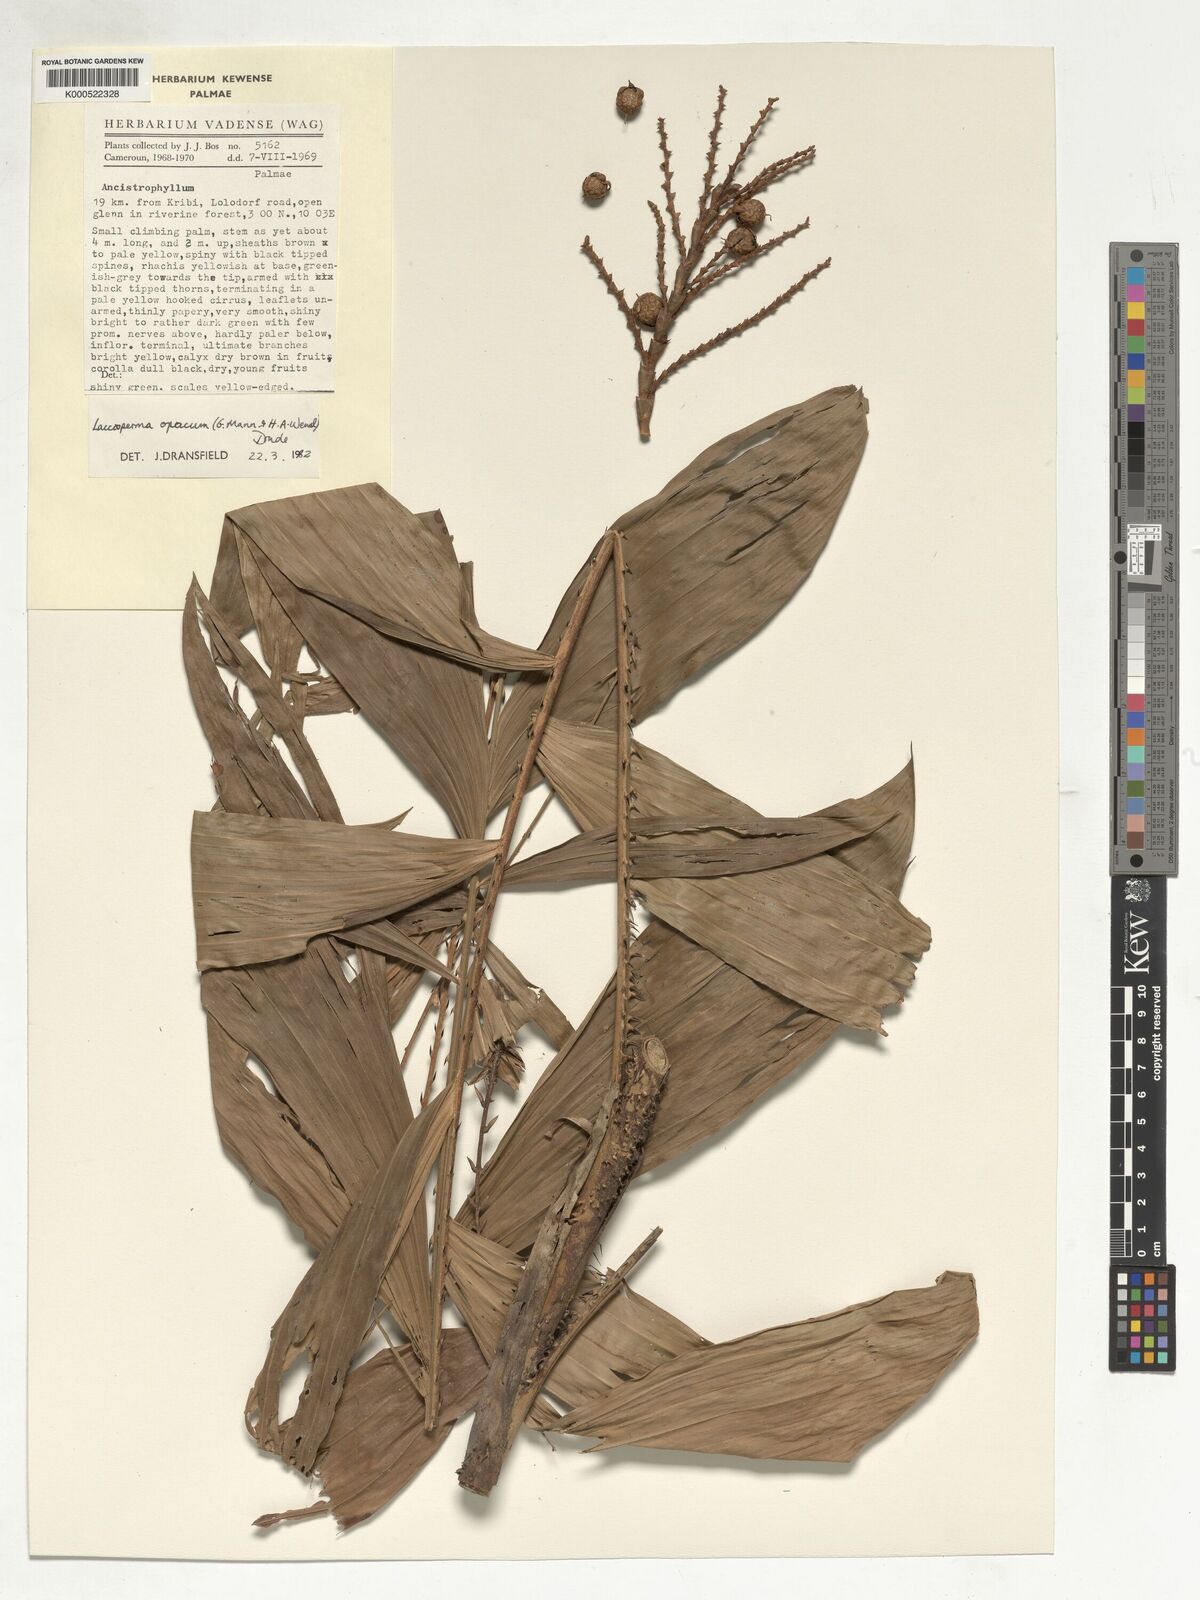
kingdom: Plantae
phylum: Tracheophyta
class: Liliopsida
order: Arecales
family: Arecaceae
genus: Laccosperma
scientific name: Laccosperma opacum
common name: Rattan
